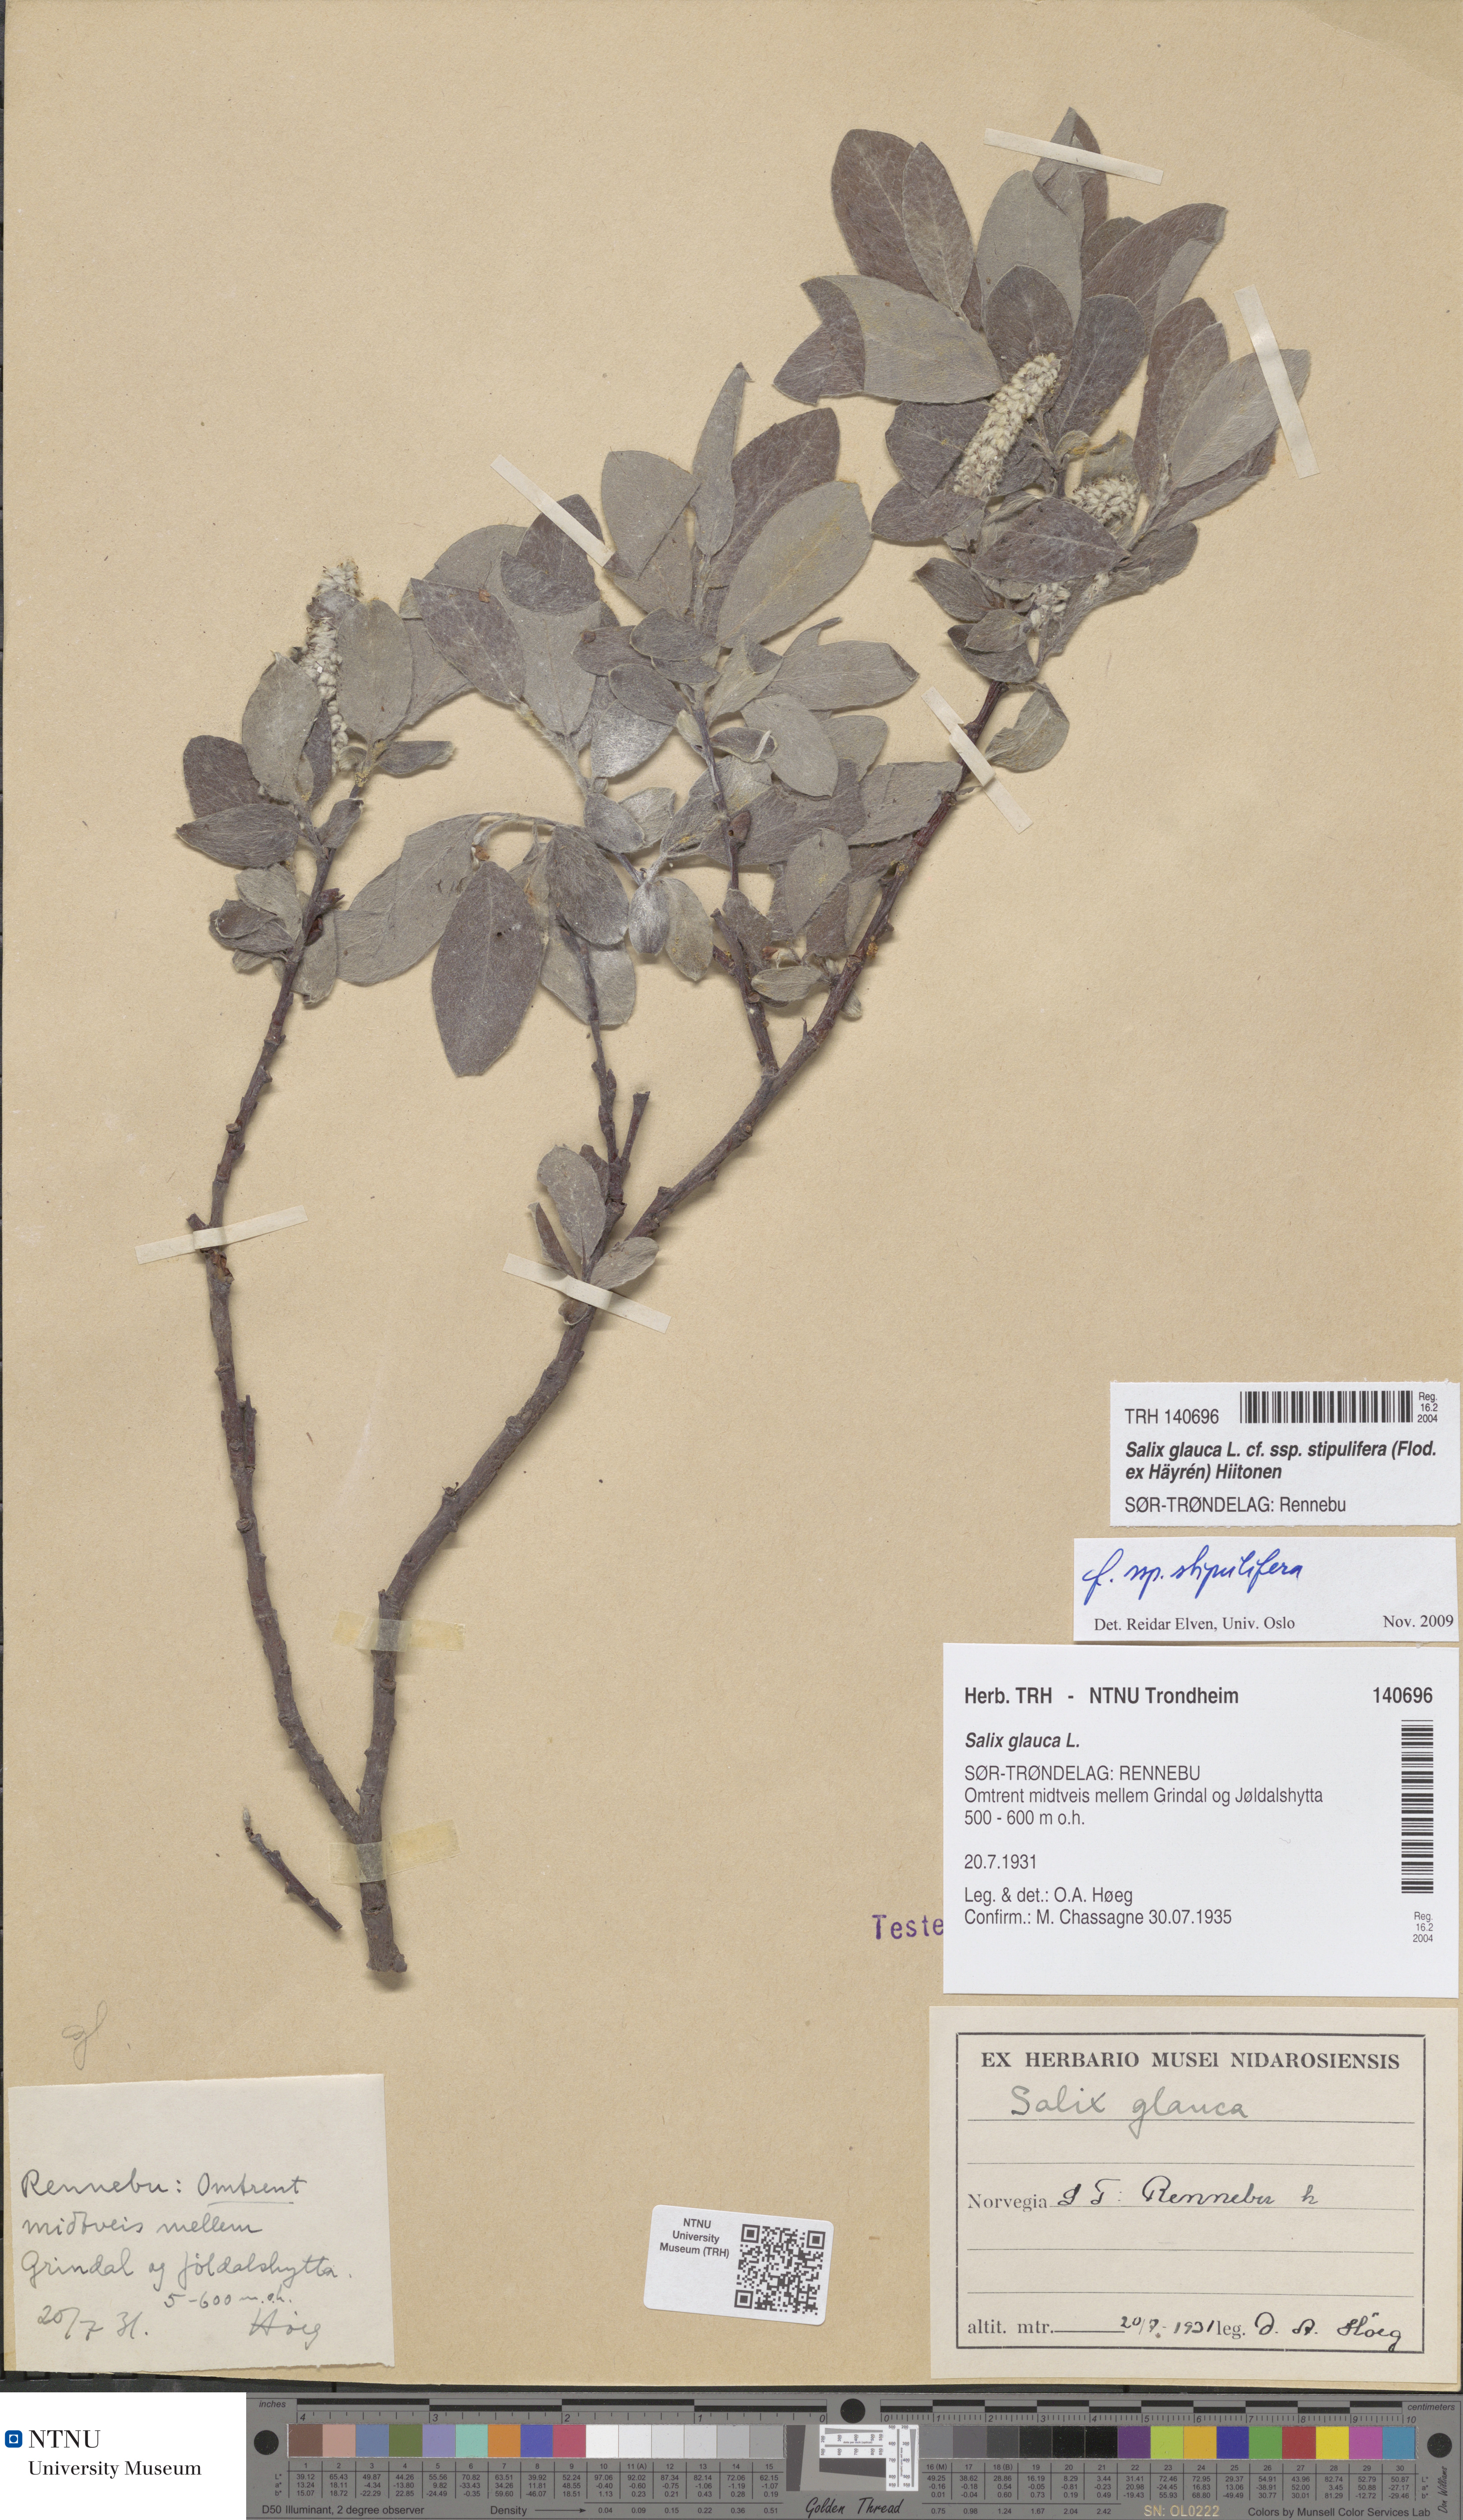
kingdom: Plantae
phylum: Tracheophyta
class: Magnoliopsida
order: Malpighiales
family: Salicaceae
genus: Salix
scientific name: Salix glauca
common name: Glaucous willow
